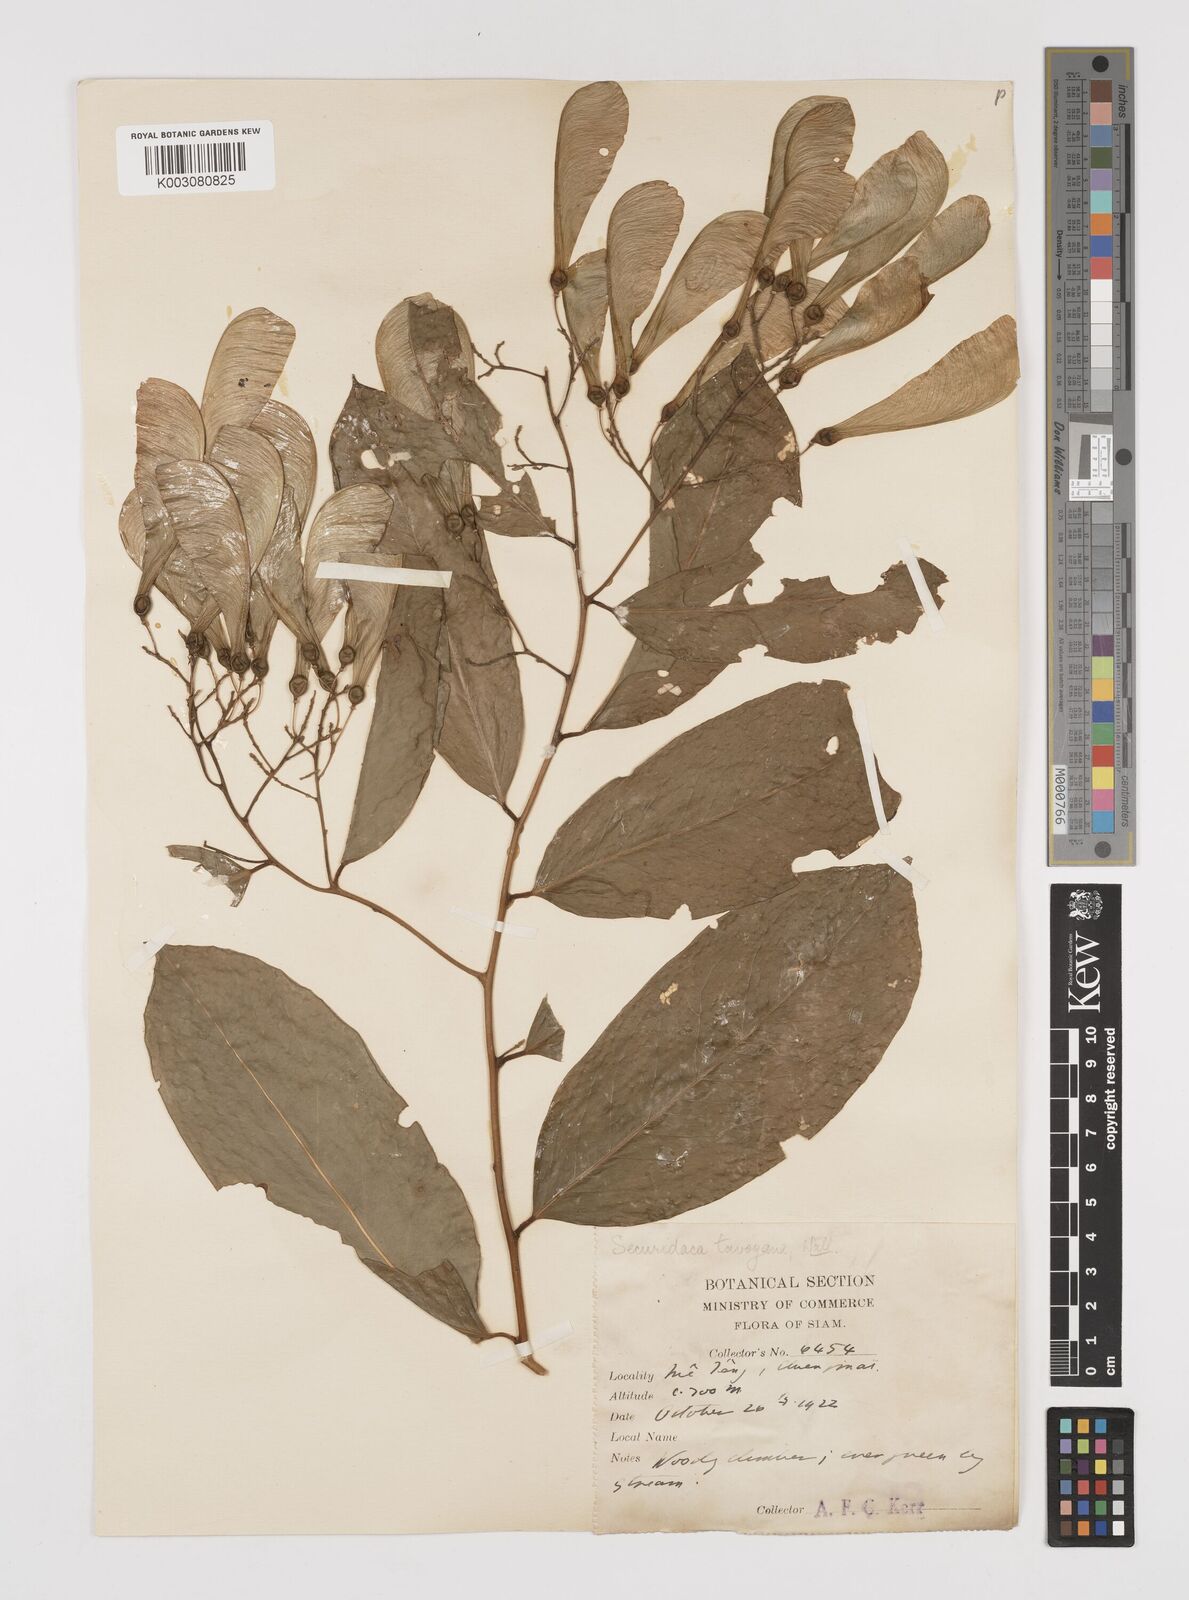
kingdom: Plantae
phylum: Tracheophyta
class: Magnoliopsida
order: Fabales
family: Polygalaceae
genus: Securidaca
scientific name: Securidaca inappendiculata
